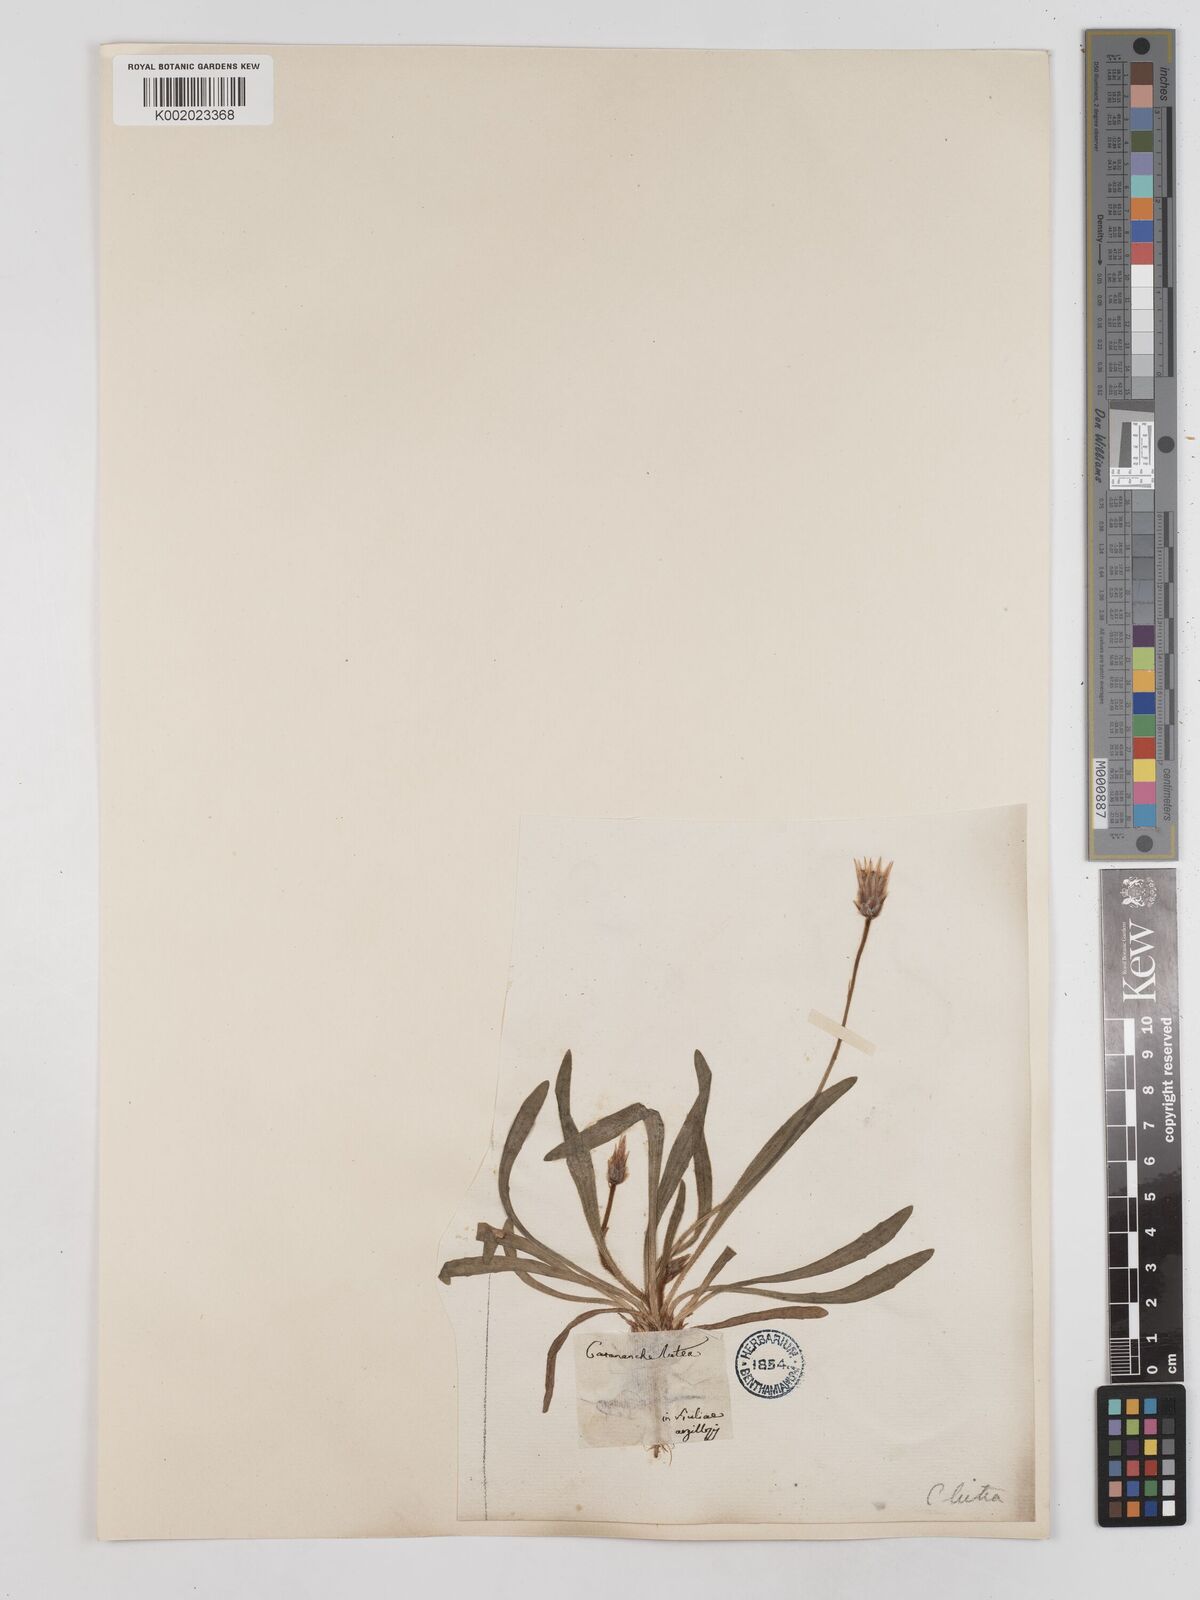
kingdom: Plantae
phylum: Tracheophyta
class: Magnoliopsida
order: Asterales
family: Asteraceae
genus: Catananche
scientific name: Catananche lutea
